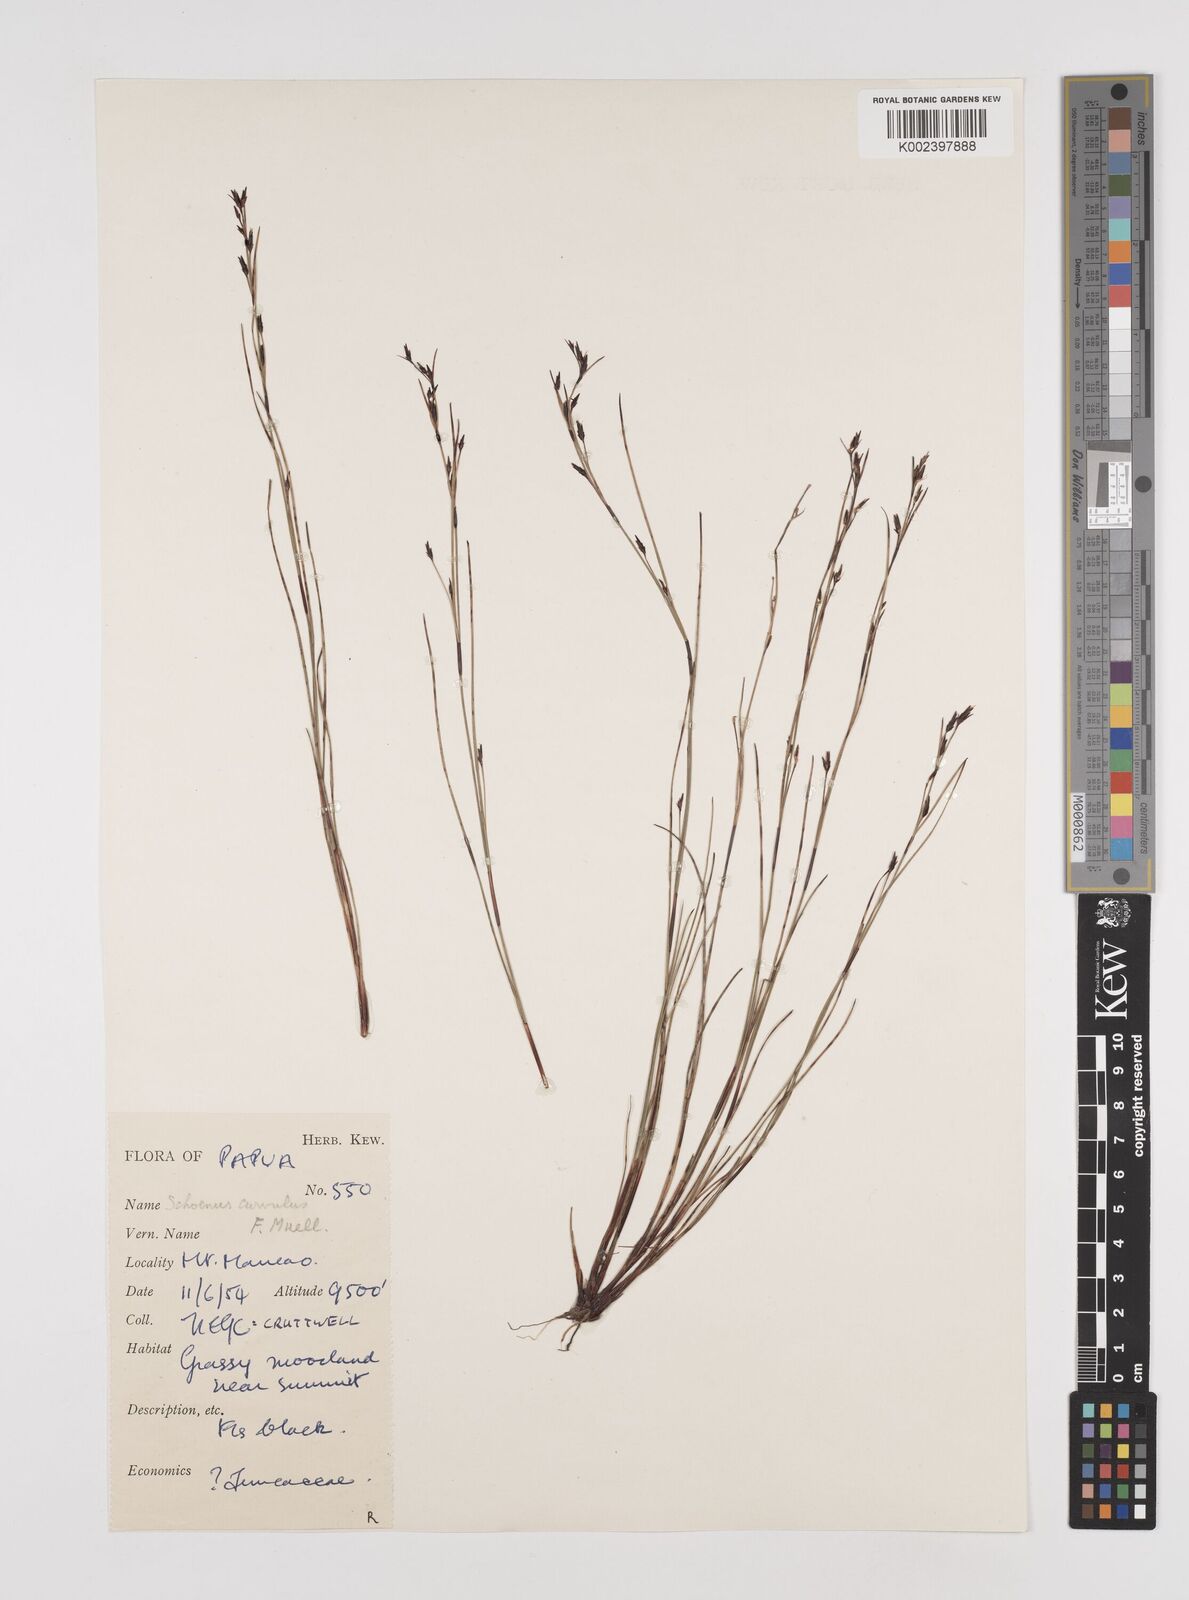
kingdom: Plantae
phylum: Tracheophyta
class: Liliopsida
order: Poales
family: Cyperaceae
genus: Schoenus
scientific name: Schoenus curvulus
